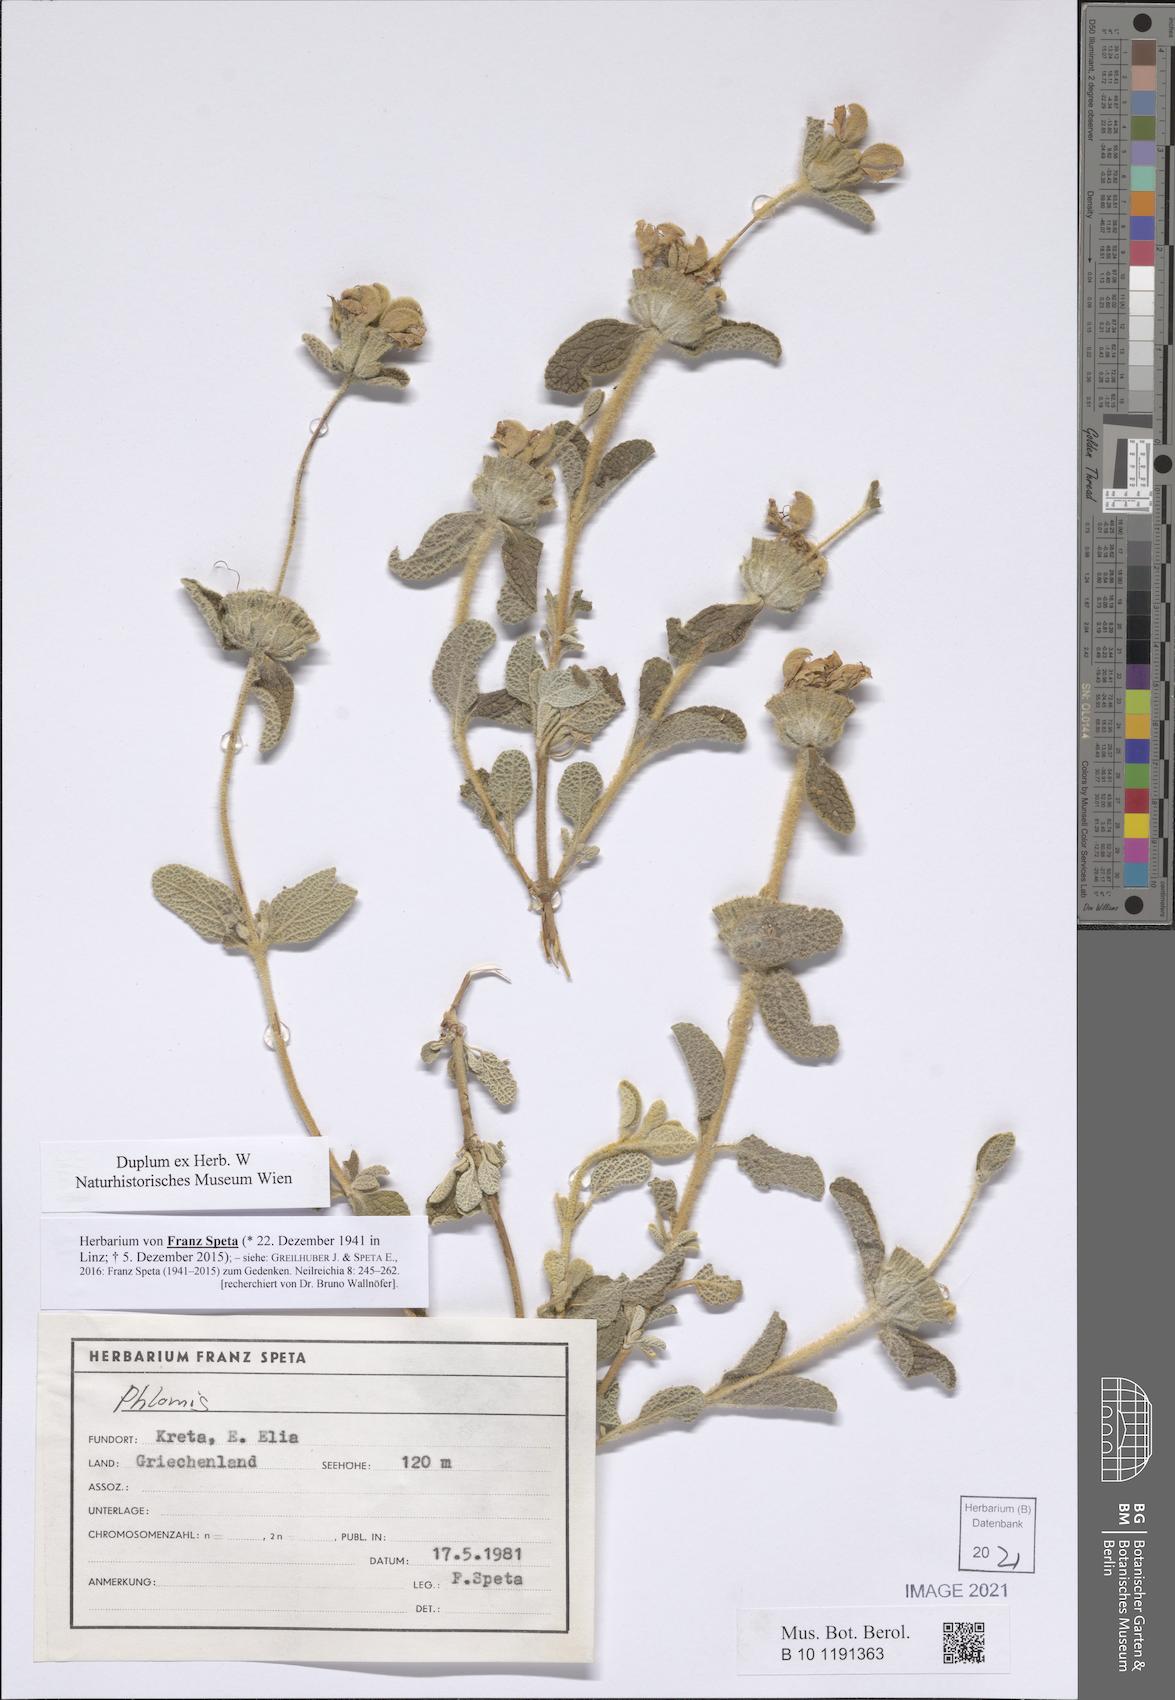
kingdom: Plantae
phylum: Tracheophyta
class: Magnoliopsida
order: Lamiales
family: Lamiaceae
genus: Phlomis
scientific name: Phlomis
